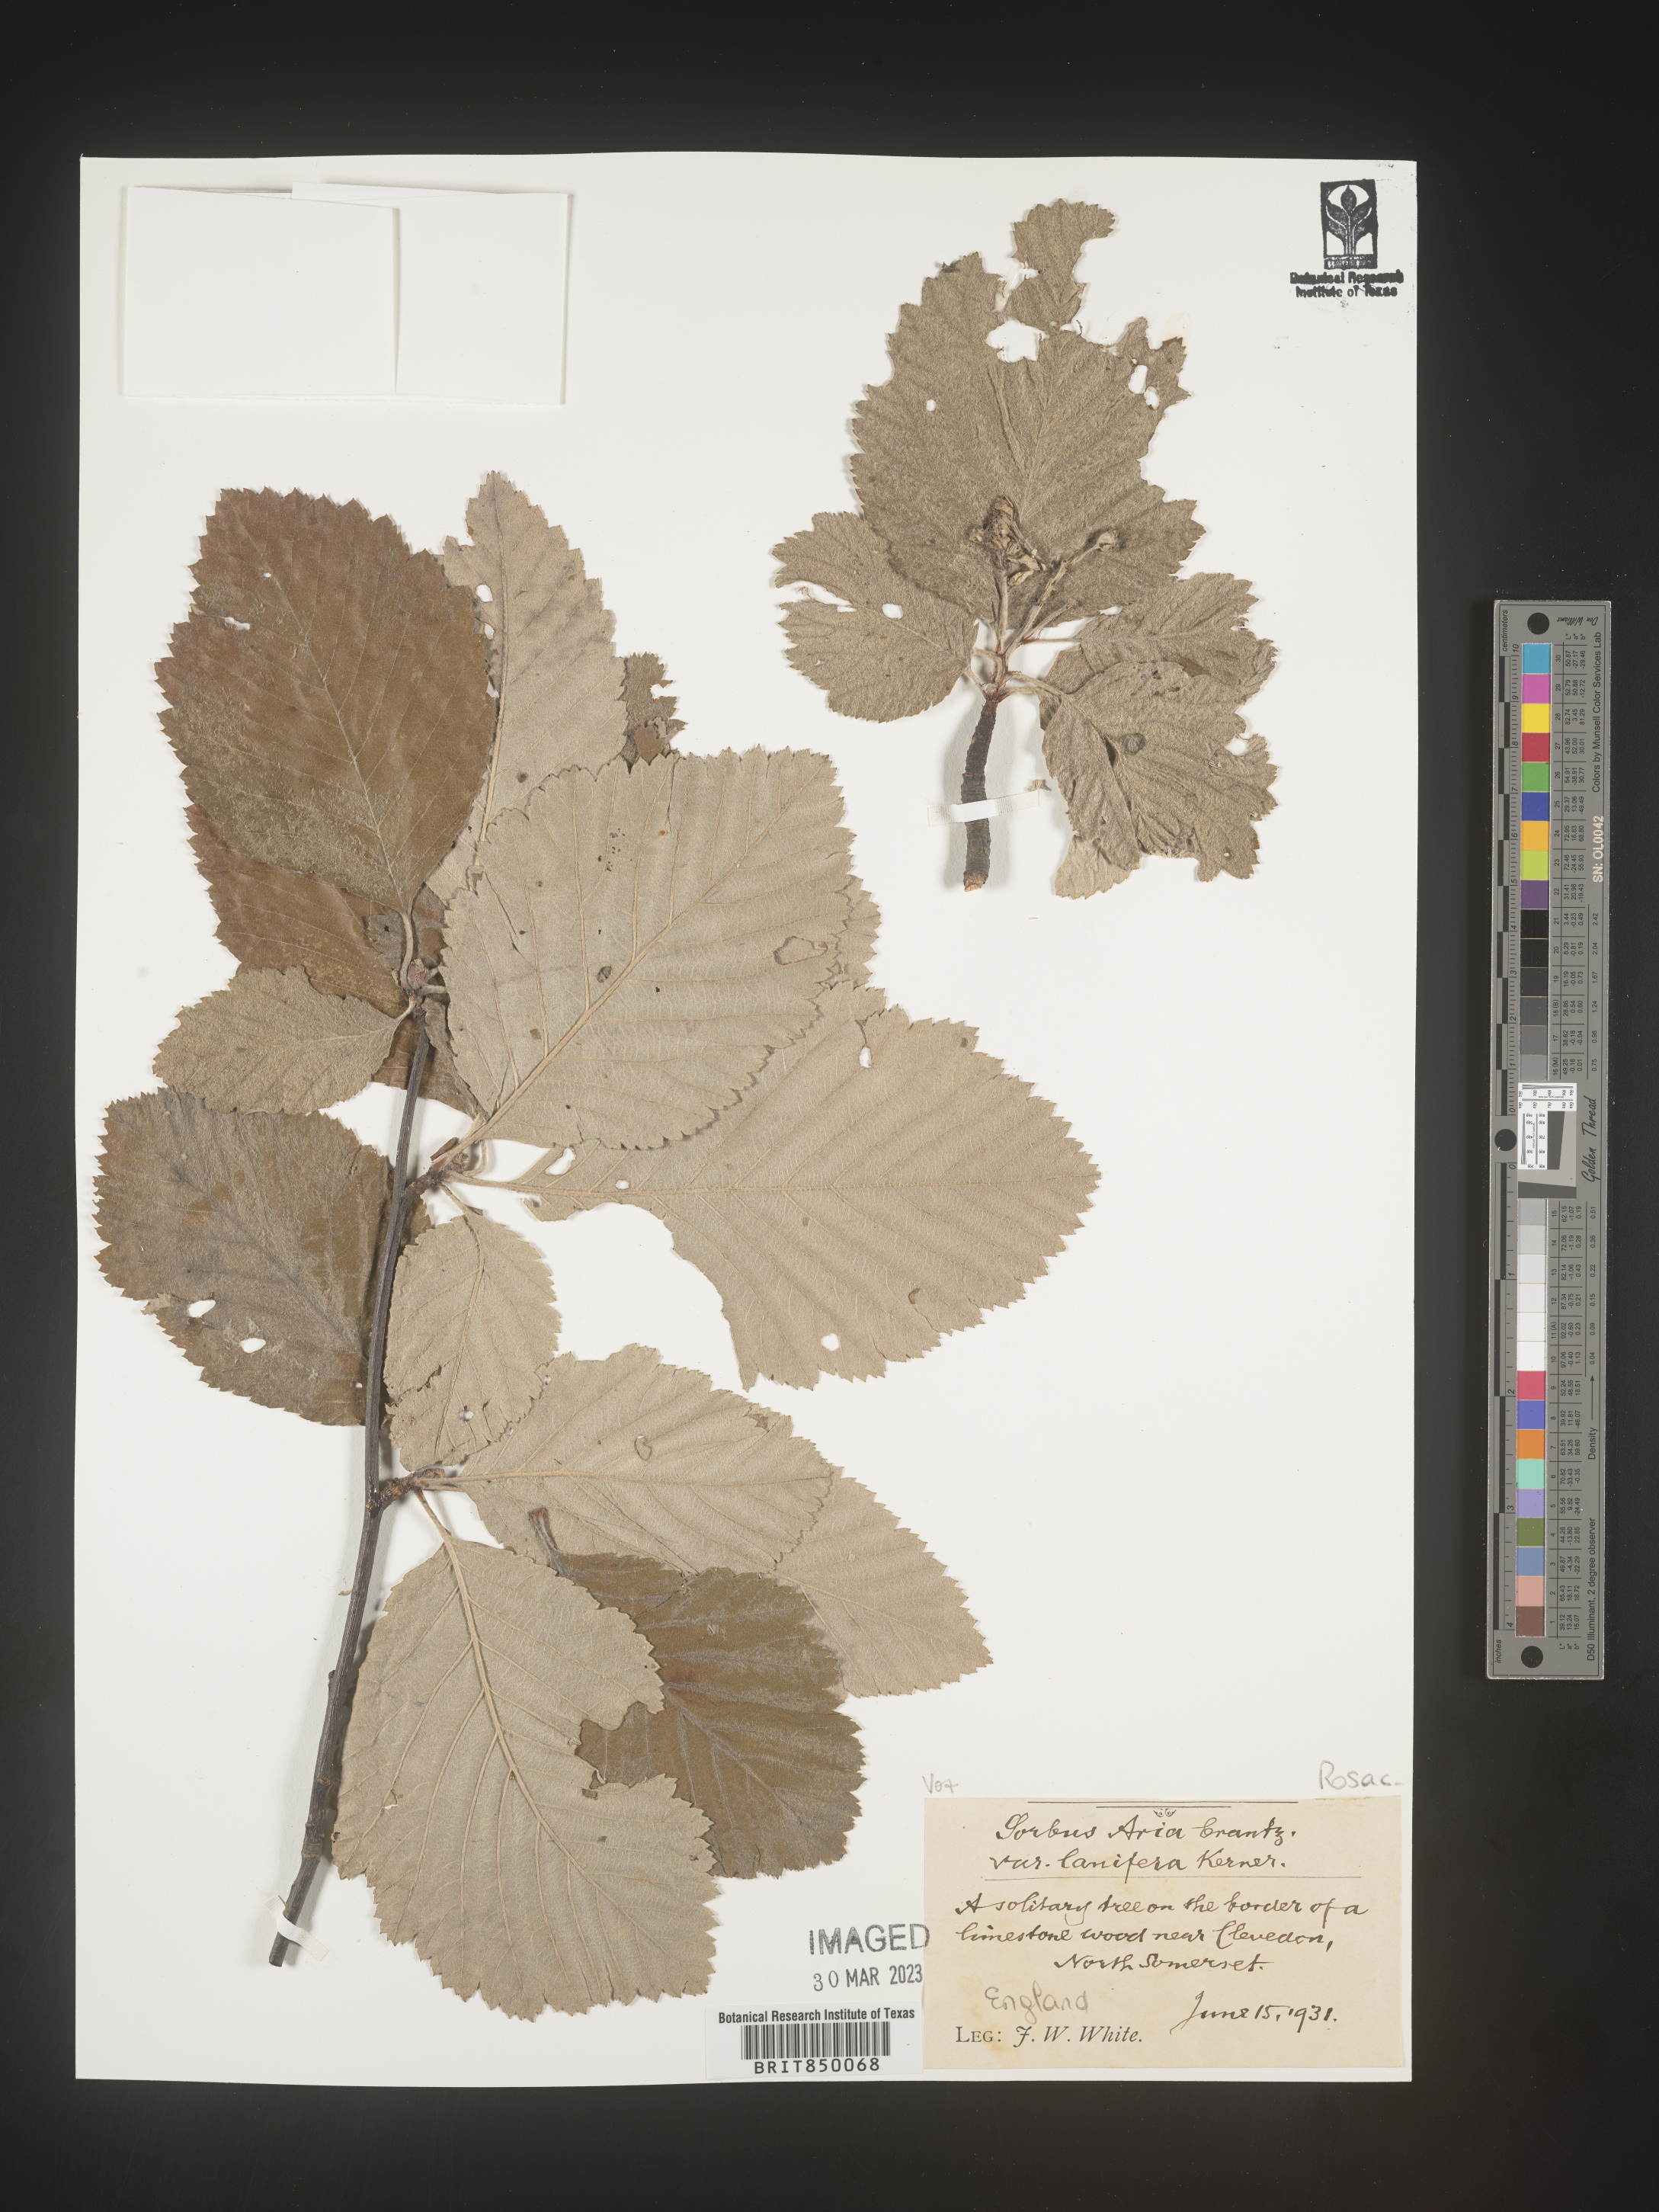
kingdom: Plantae
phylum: Tracheophyta
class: Magnoliopsida
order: Rosales
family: Rosaceae
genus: Sorbus
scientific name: Sorbus
